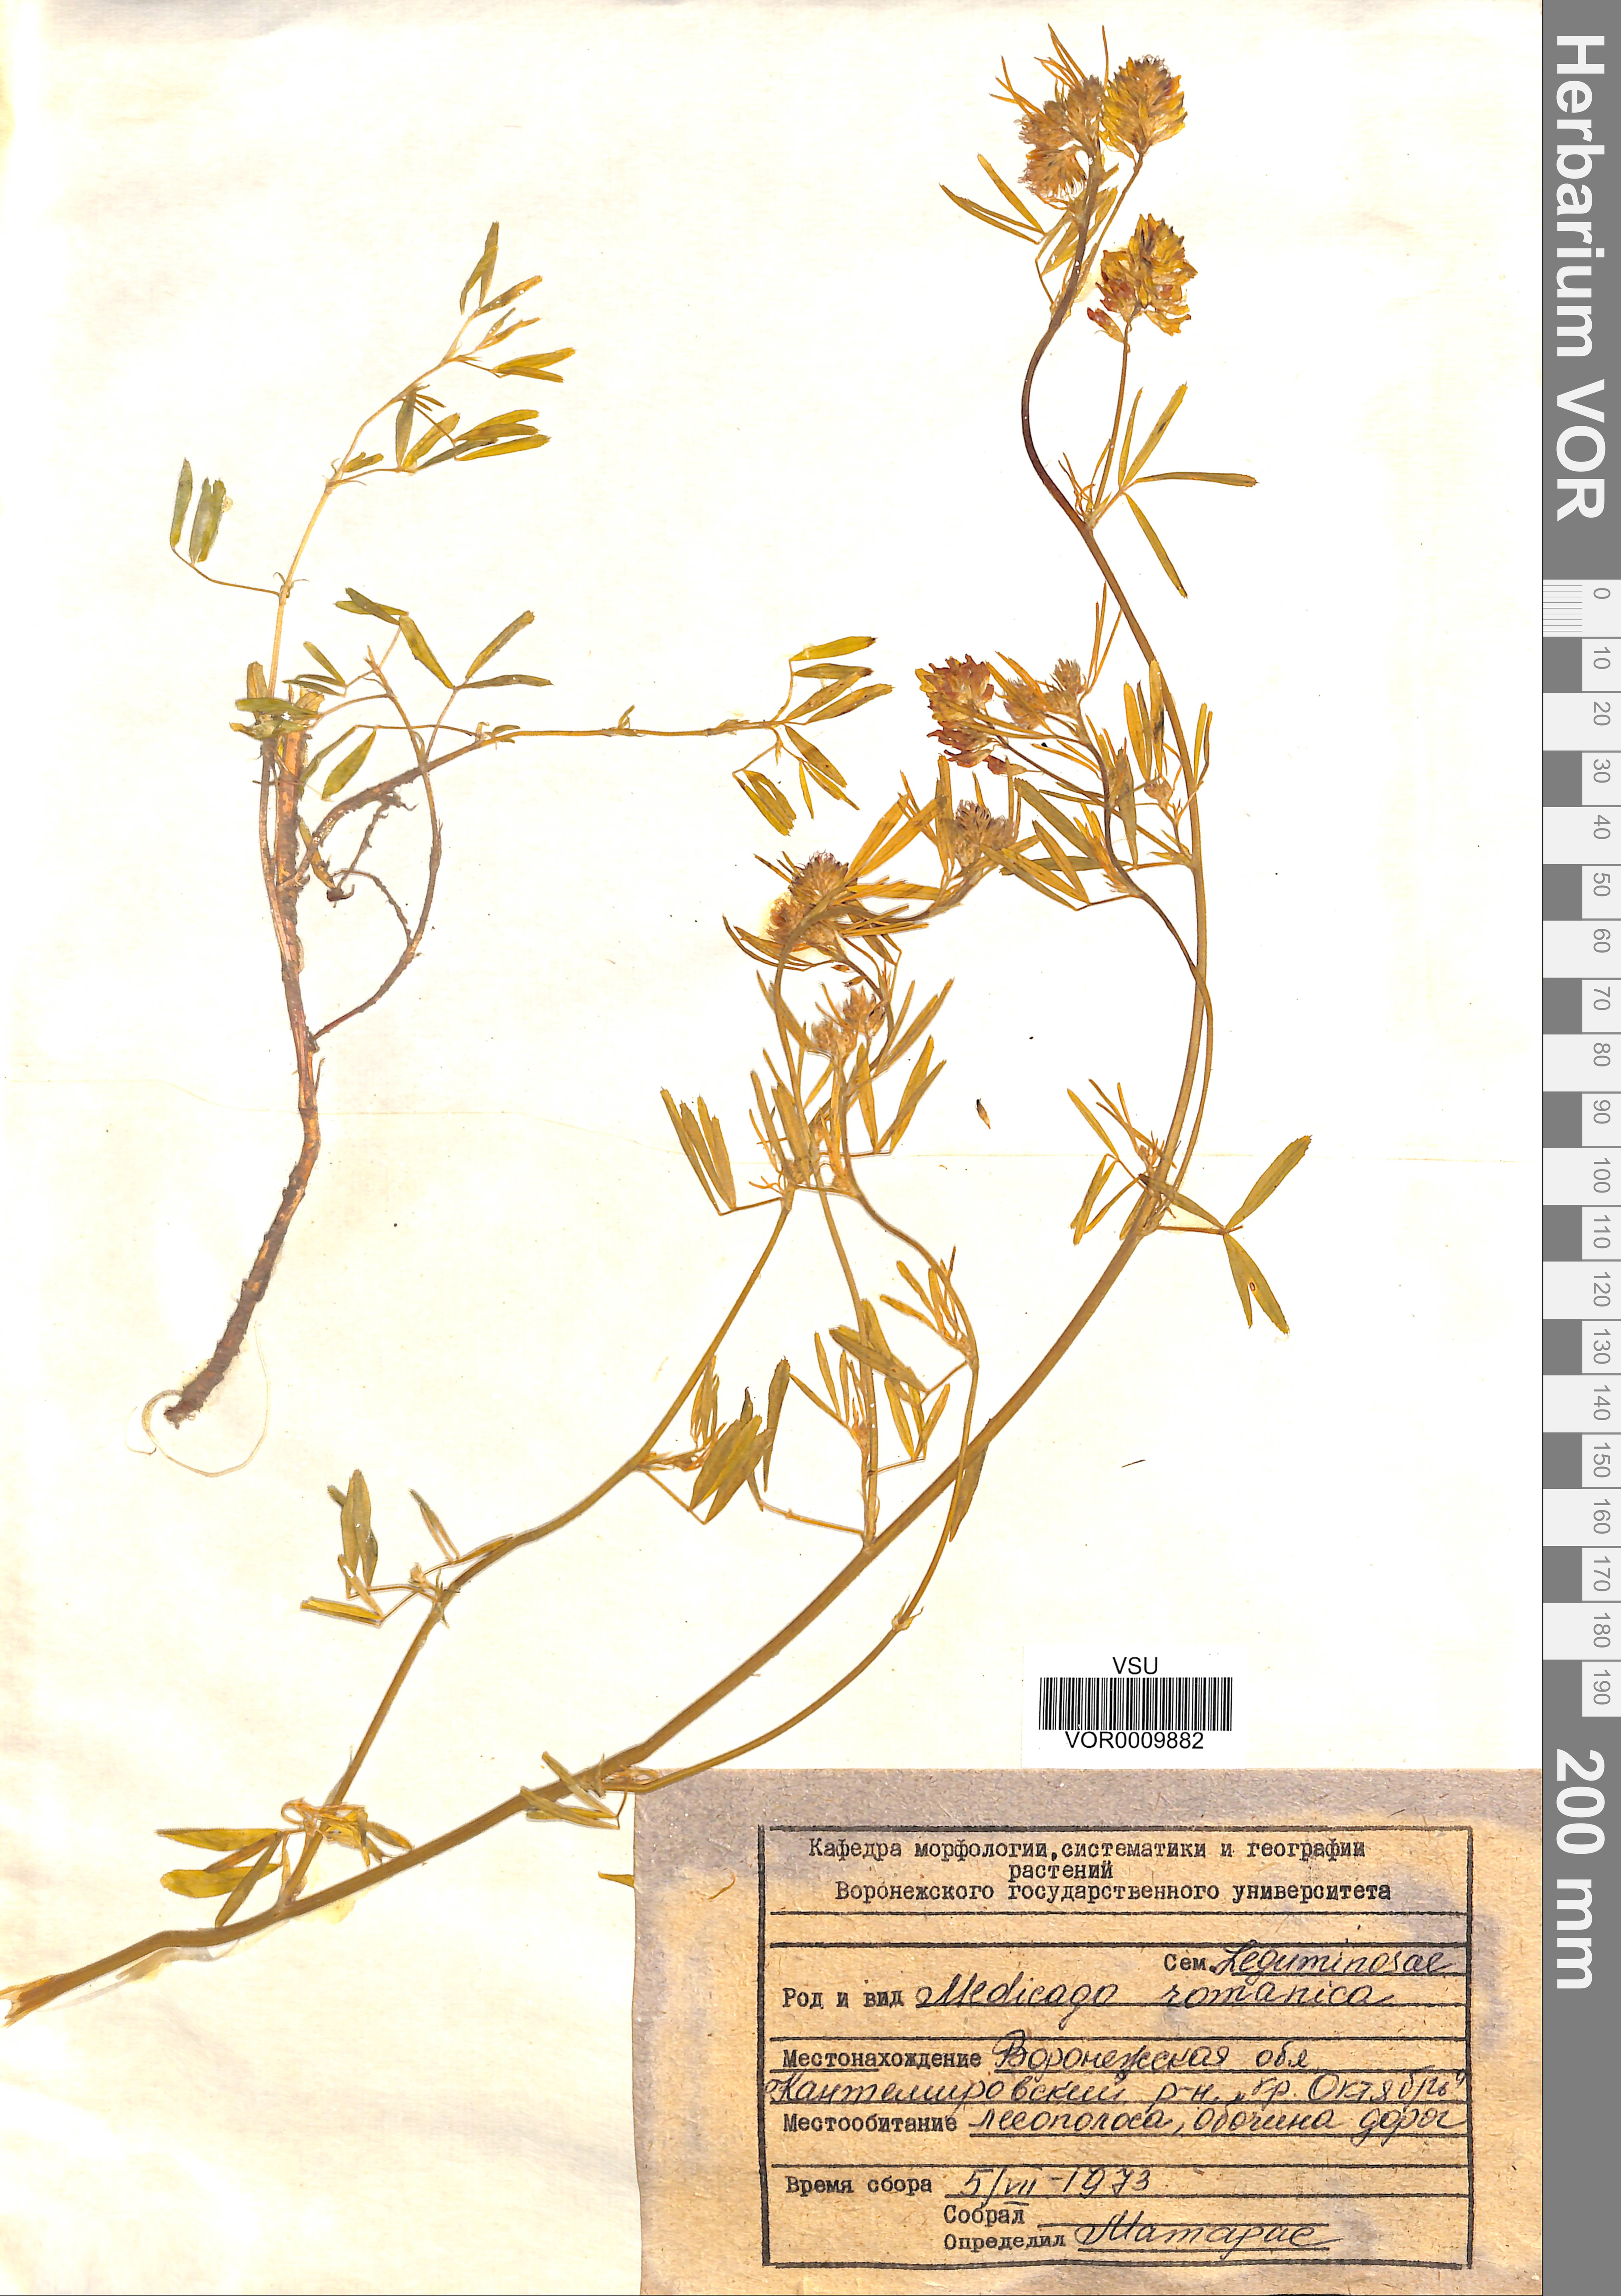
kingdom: Plantae
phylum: Tracheophyta
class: Magnoliopsida
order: Fabales
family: Fabaceae
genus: Medicago
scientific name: Medicago falcata
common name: Sickle medick
